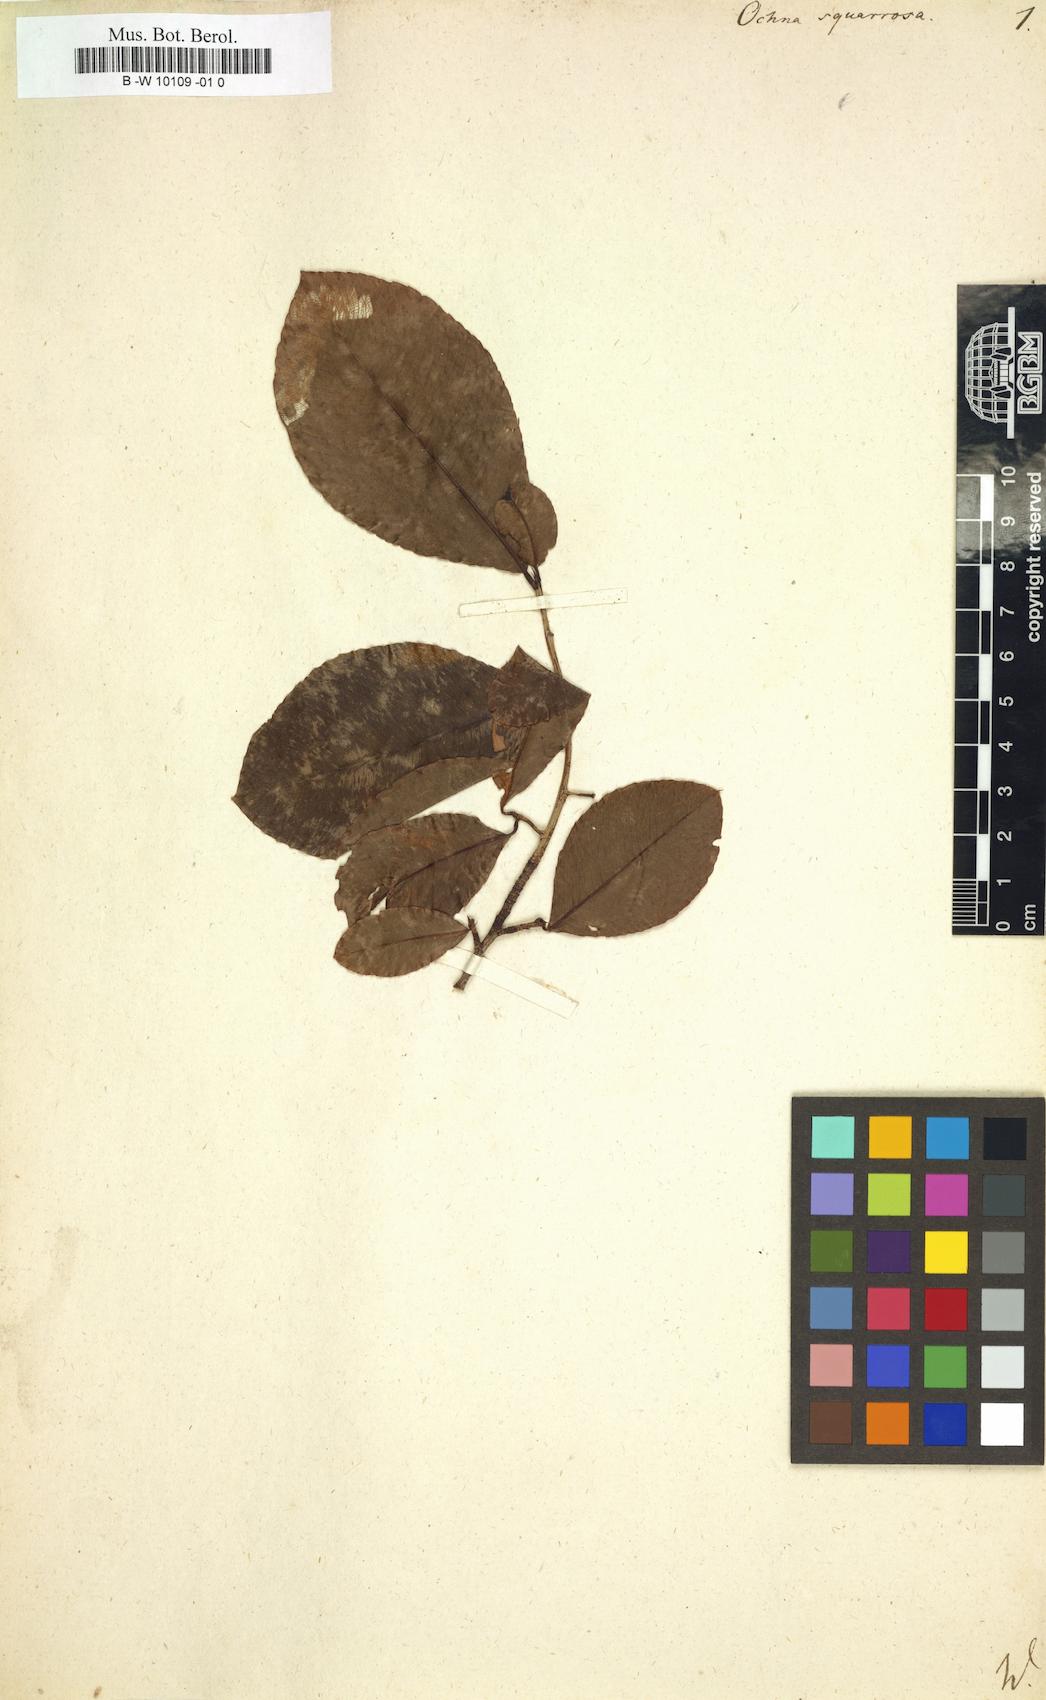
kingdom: Plantae
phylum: Tracheophyta
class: Magnoliopsida
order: Malpighiales
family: Ochnaceae
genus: Ochna
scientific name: Ochna
